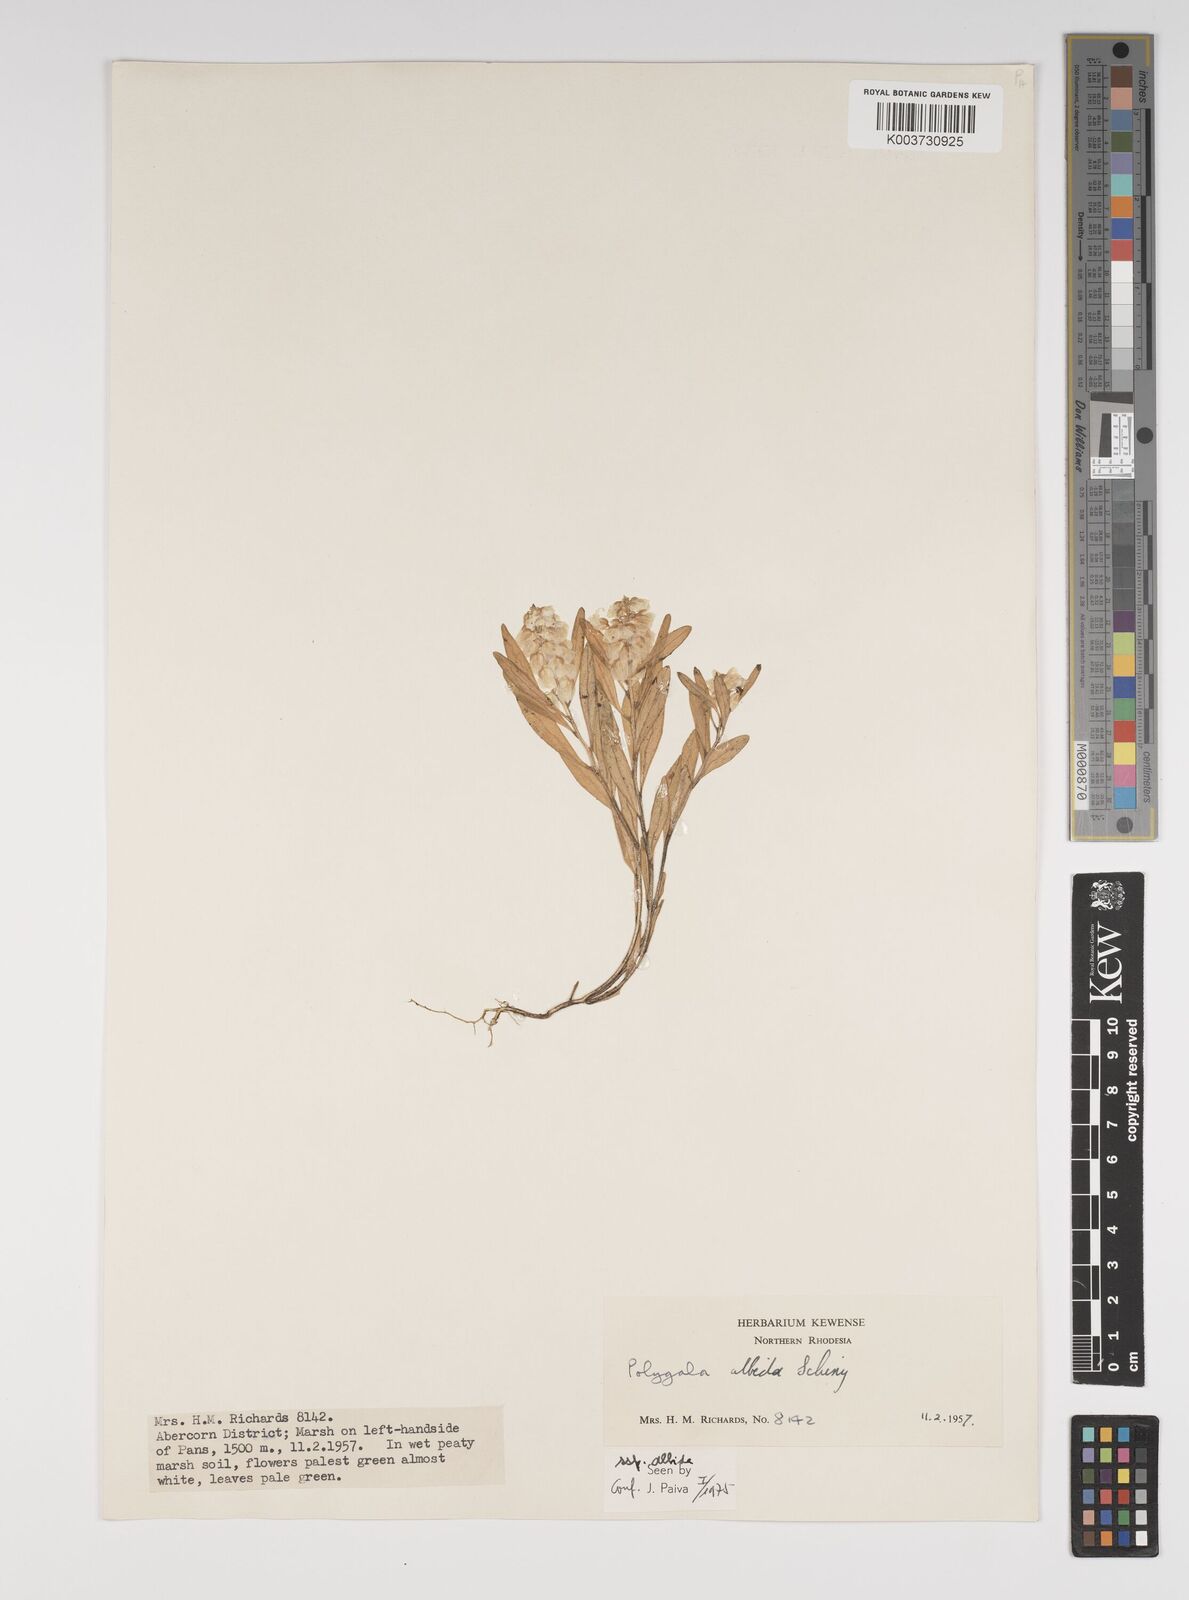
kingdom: Plantae
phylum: Tracheophyta
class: Magnoliopsida
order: Fabales
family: Polygalaceae
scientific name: Polygalaceae
